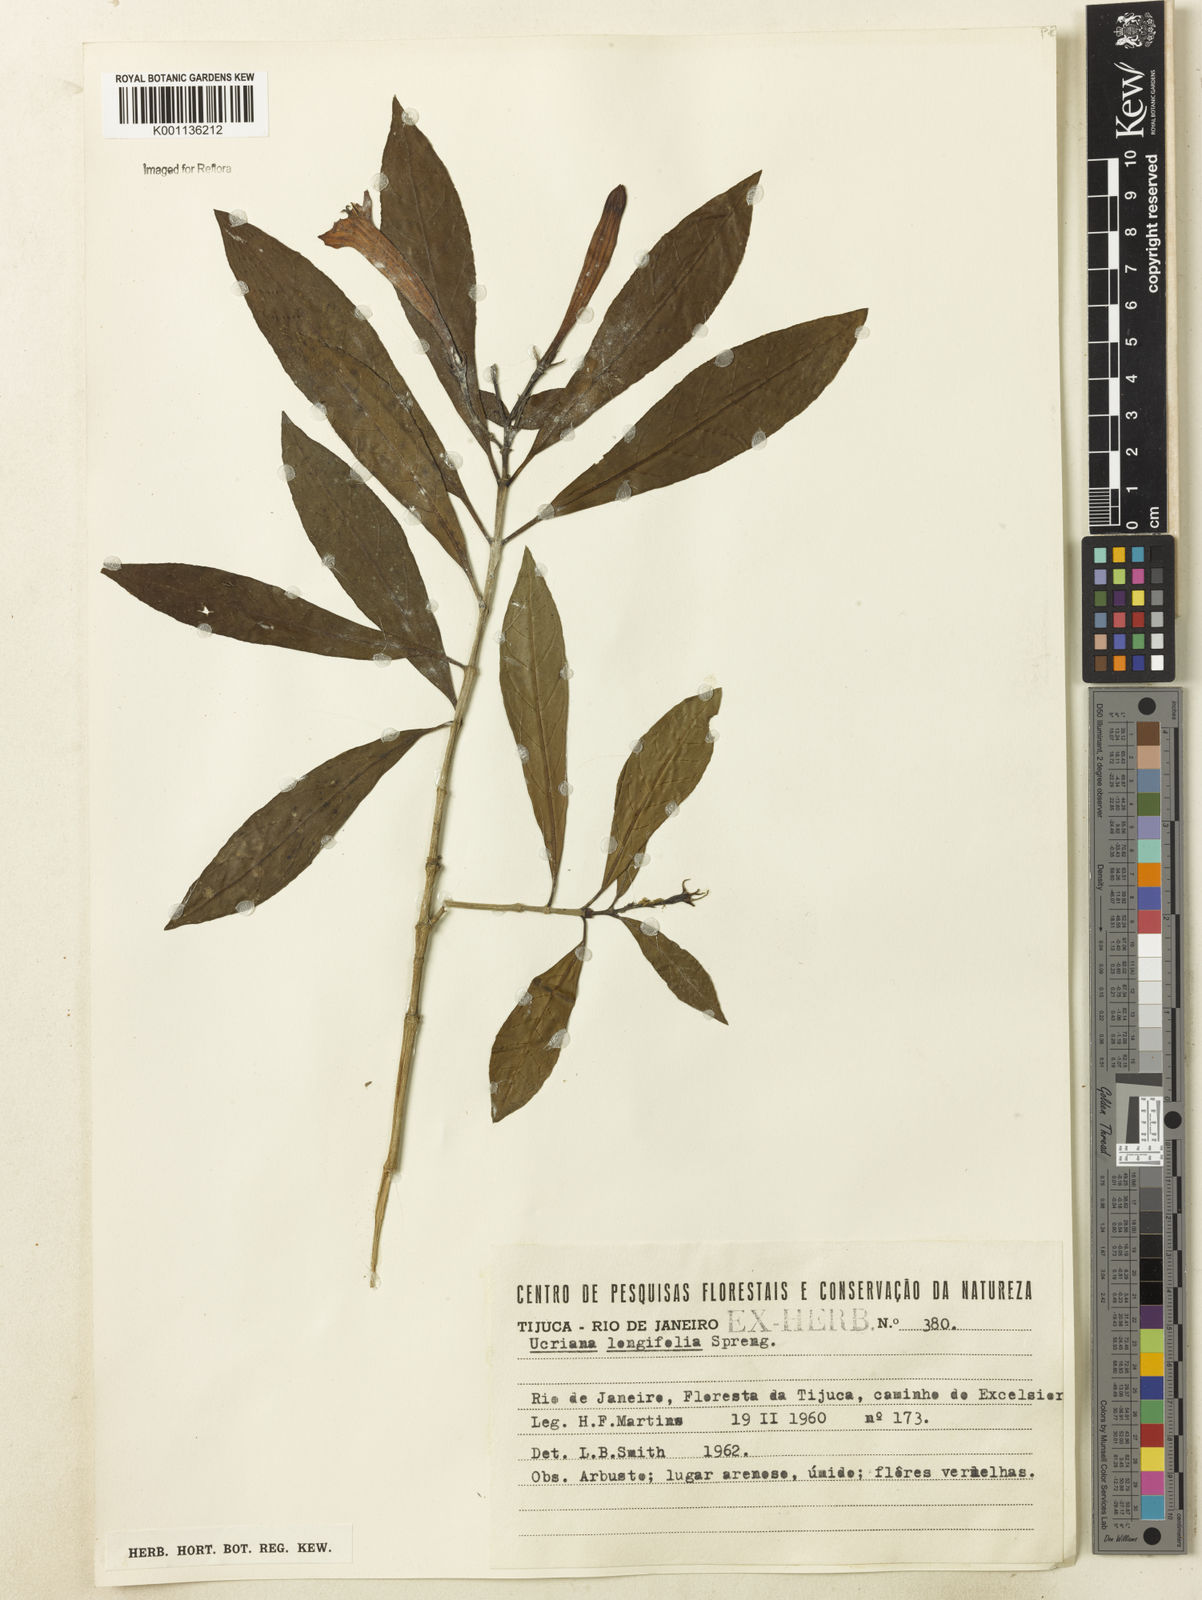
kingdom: Plantae
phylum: Tracheophyta
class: Magnoliopsida
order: Gentianales
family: Rubiaceae
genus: Augusta
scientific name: Augusta longifolia
